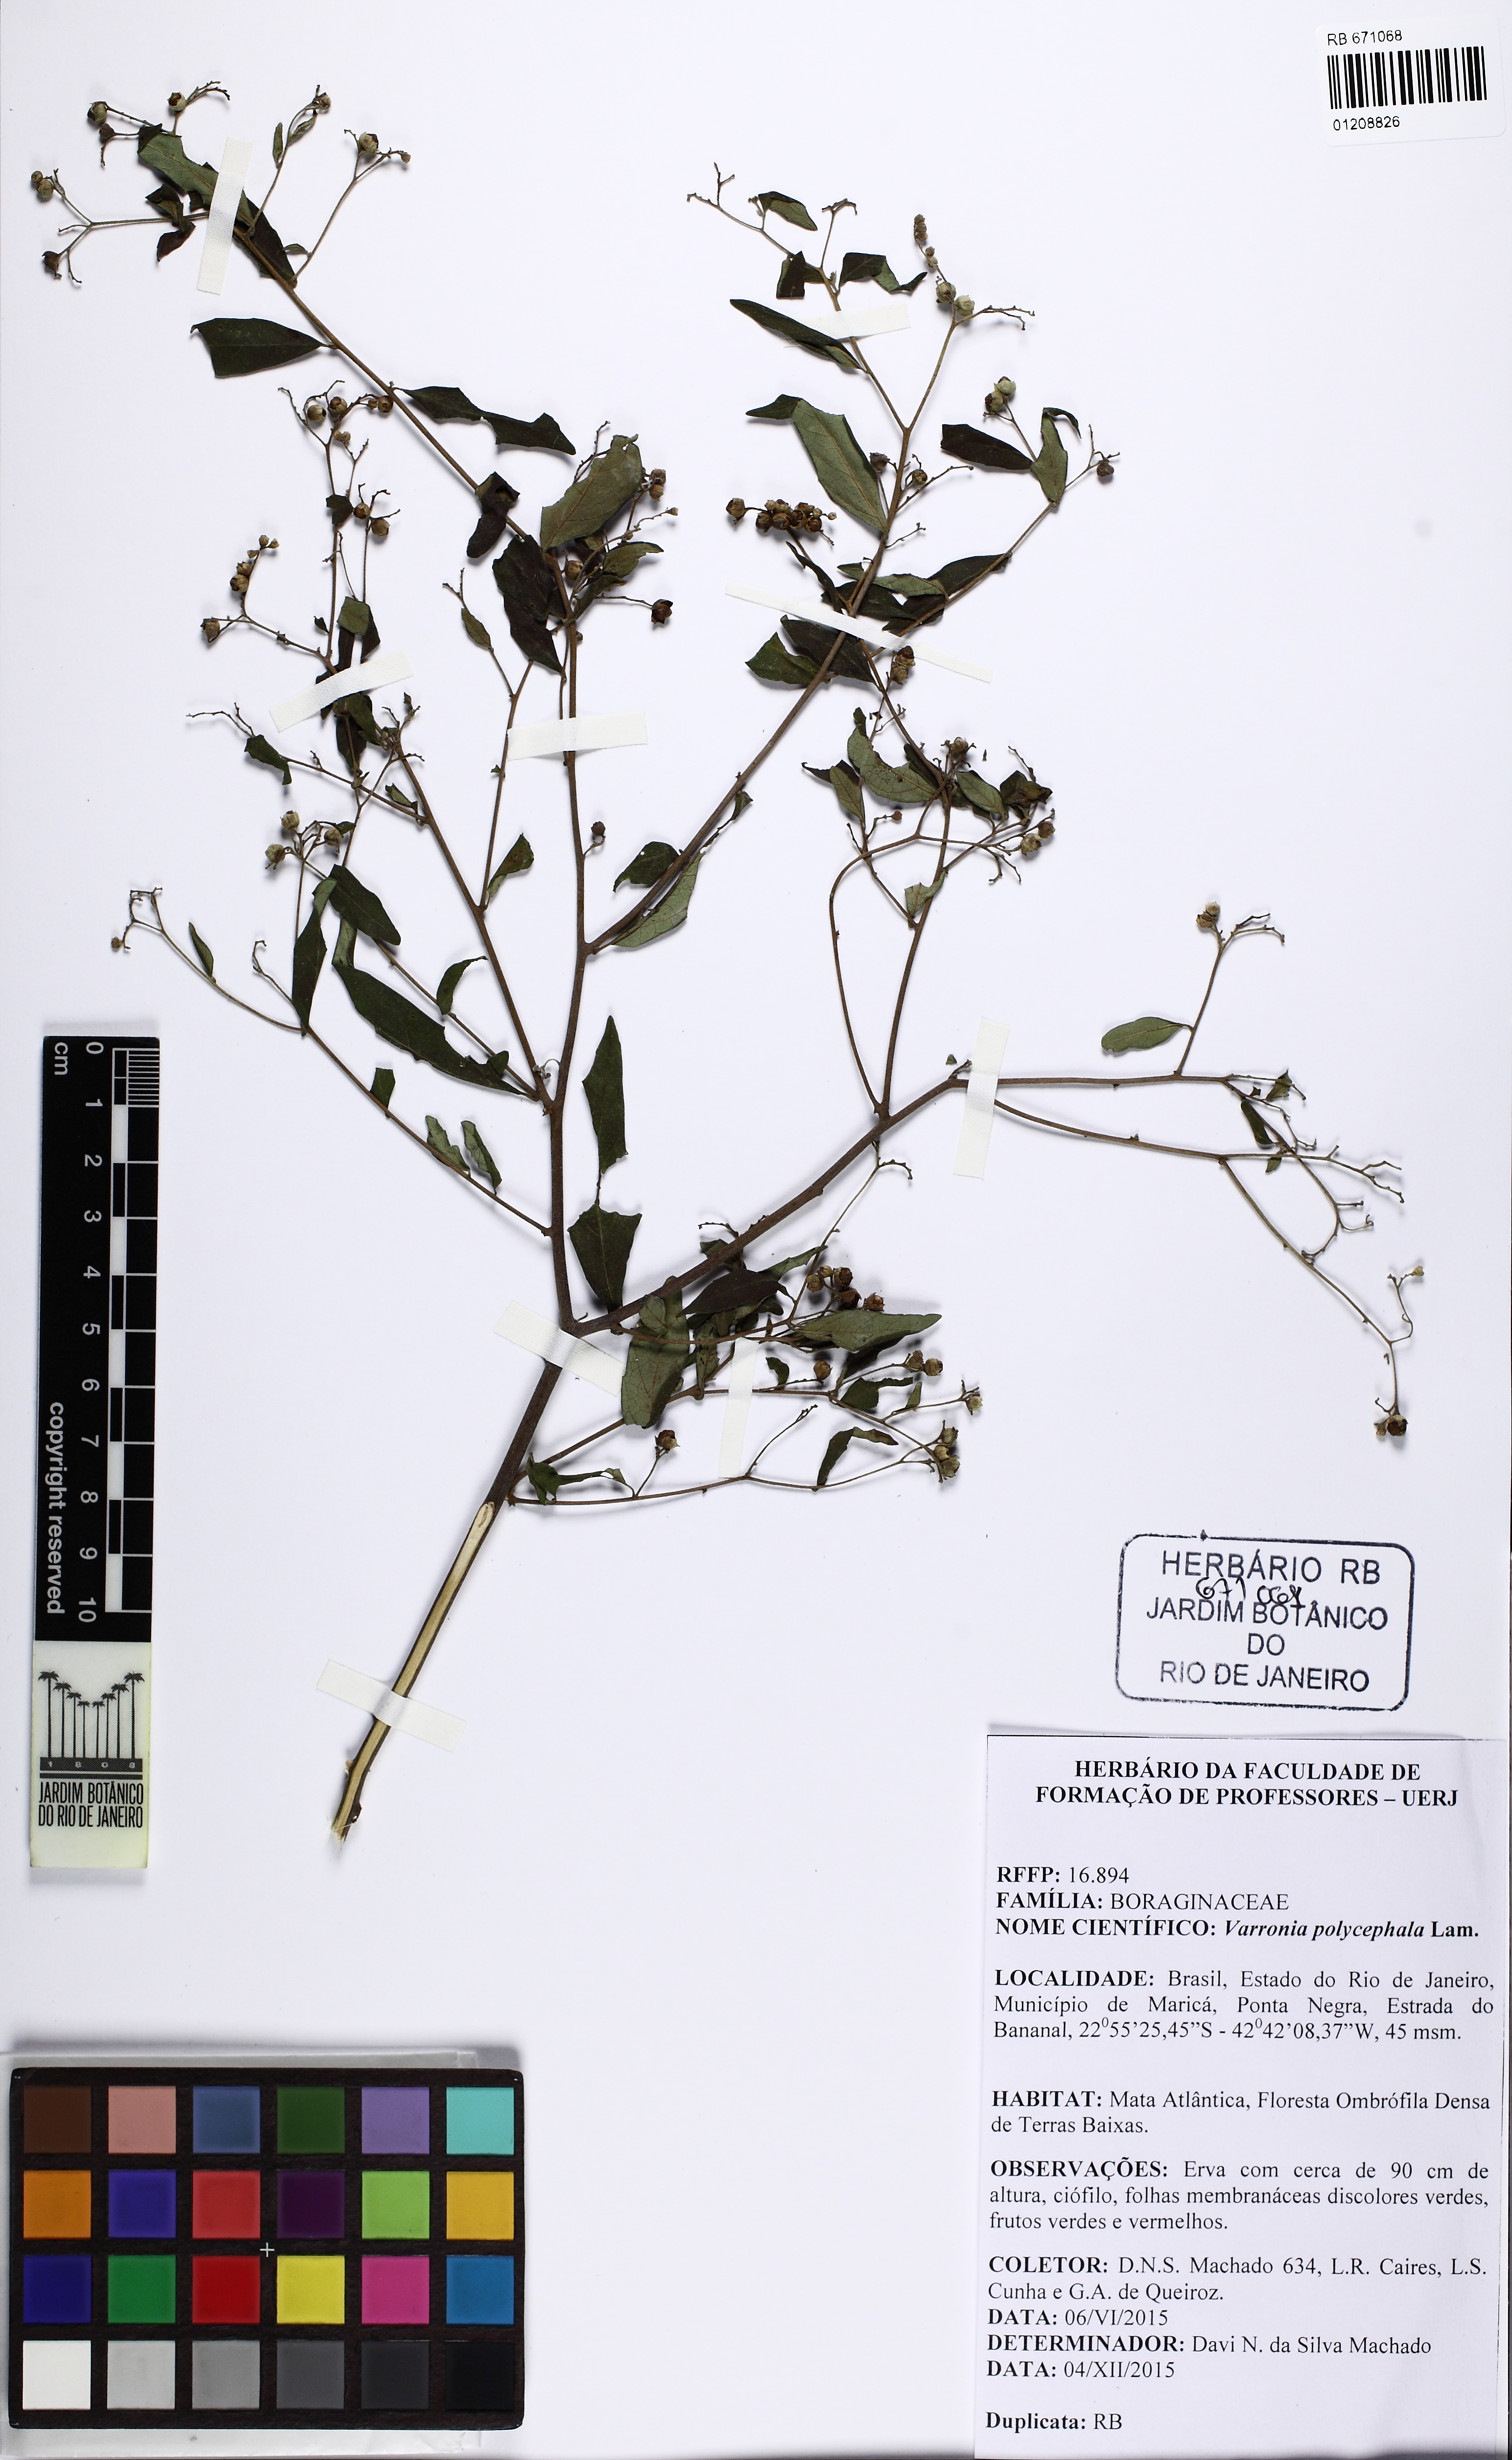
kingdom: Plantae
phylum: Tracheophyta
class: Magnoliopsida
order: Boraginales
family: Cordiaceae
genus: Varronia
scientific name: Varronia polycephala
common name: Black-sage
